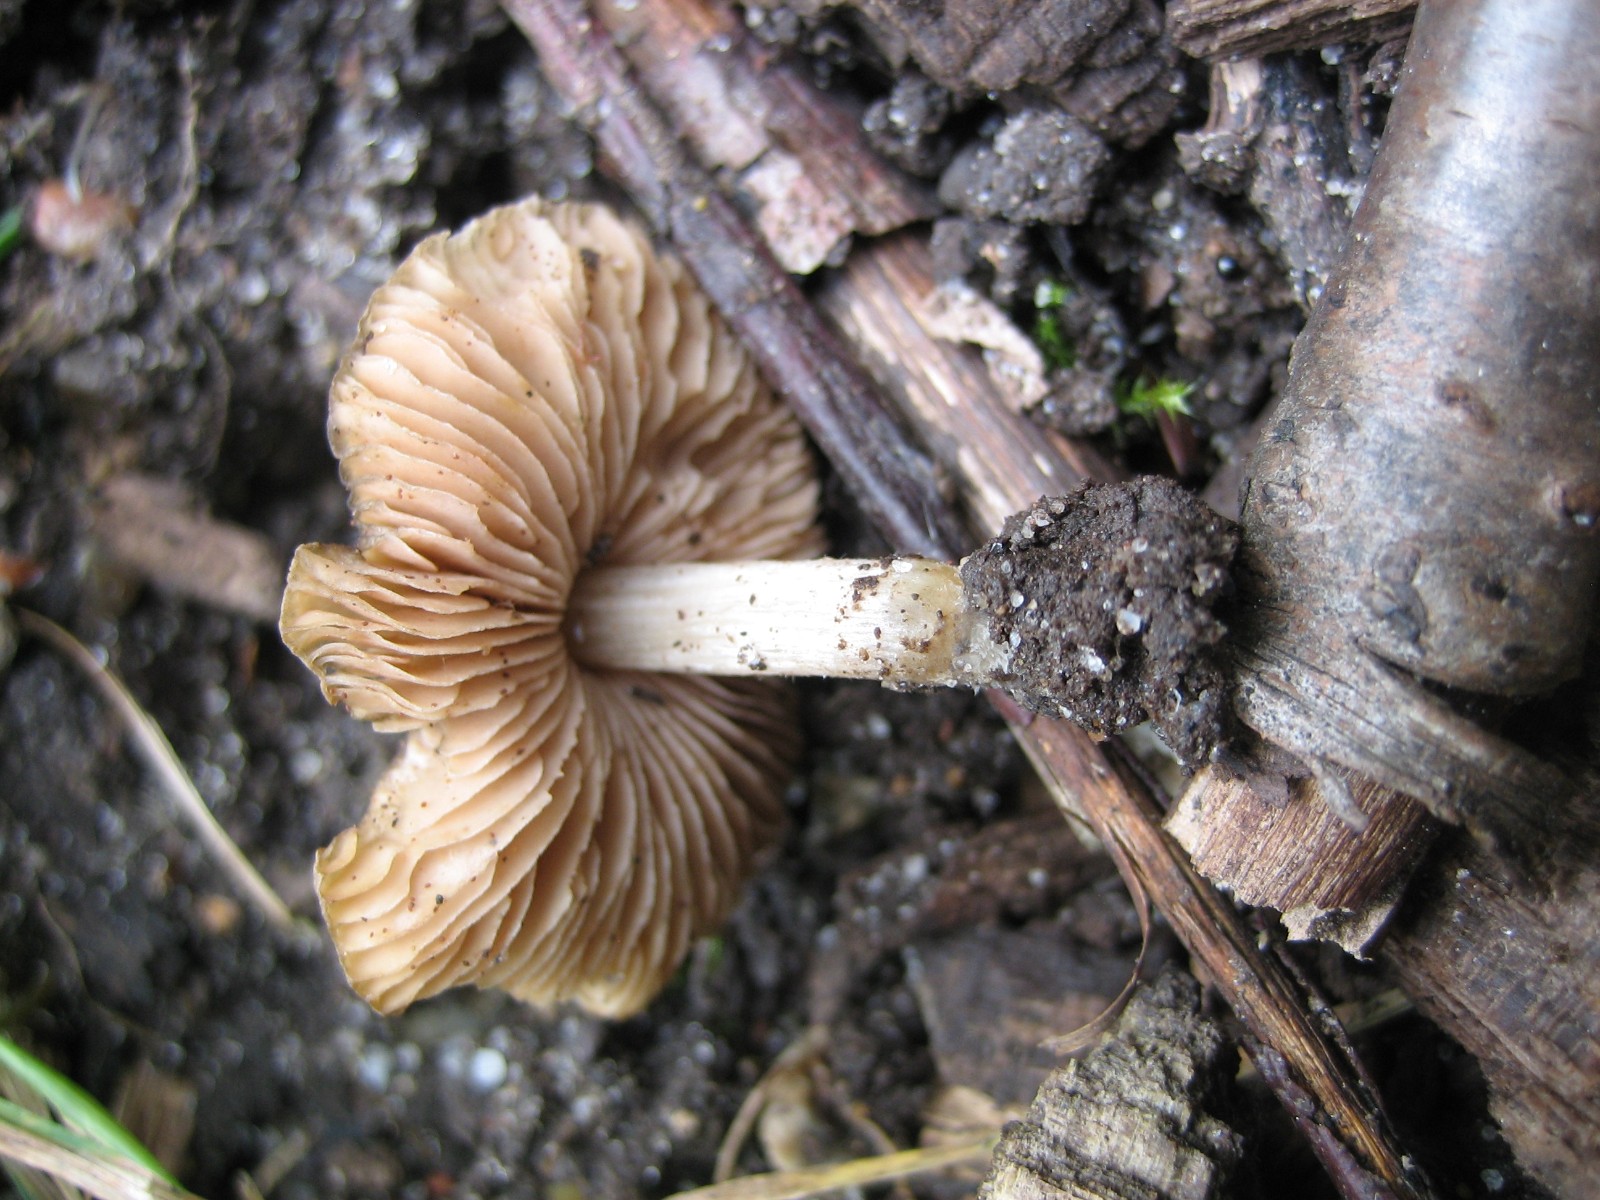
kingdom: Fungi
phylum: Basidiomycota
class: Agaricomycetes
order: Agaricales
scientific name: Agaricales
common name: champignonordenen
